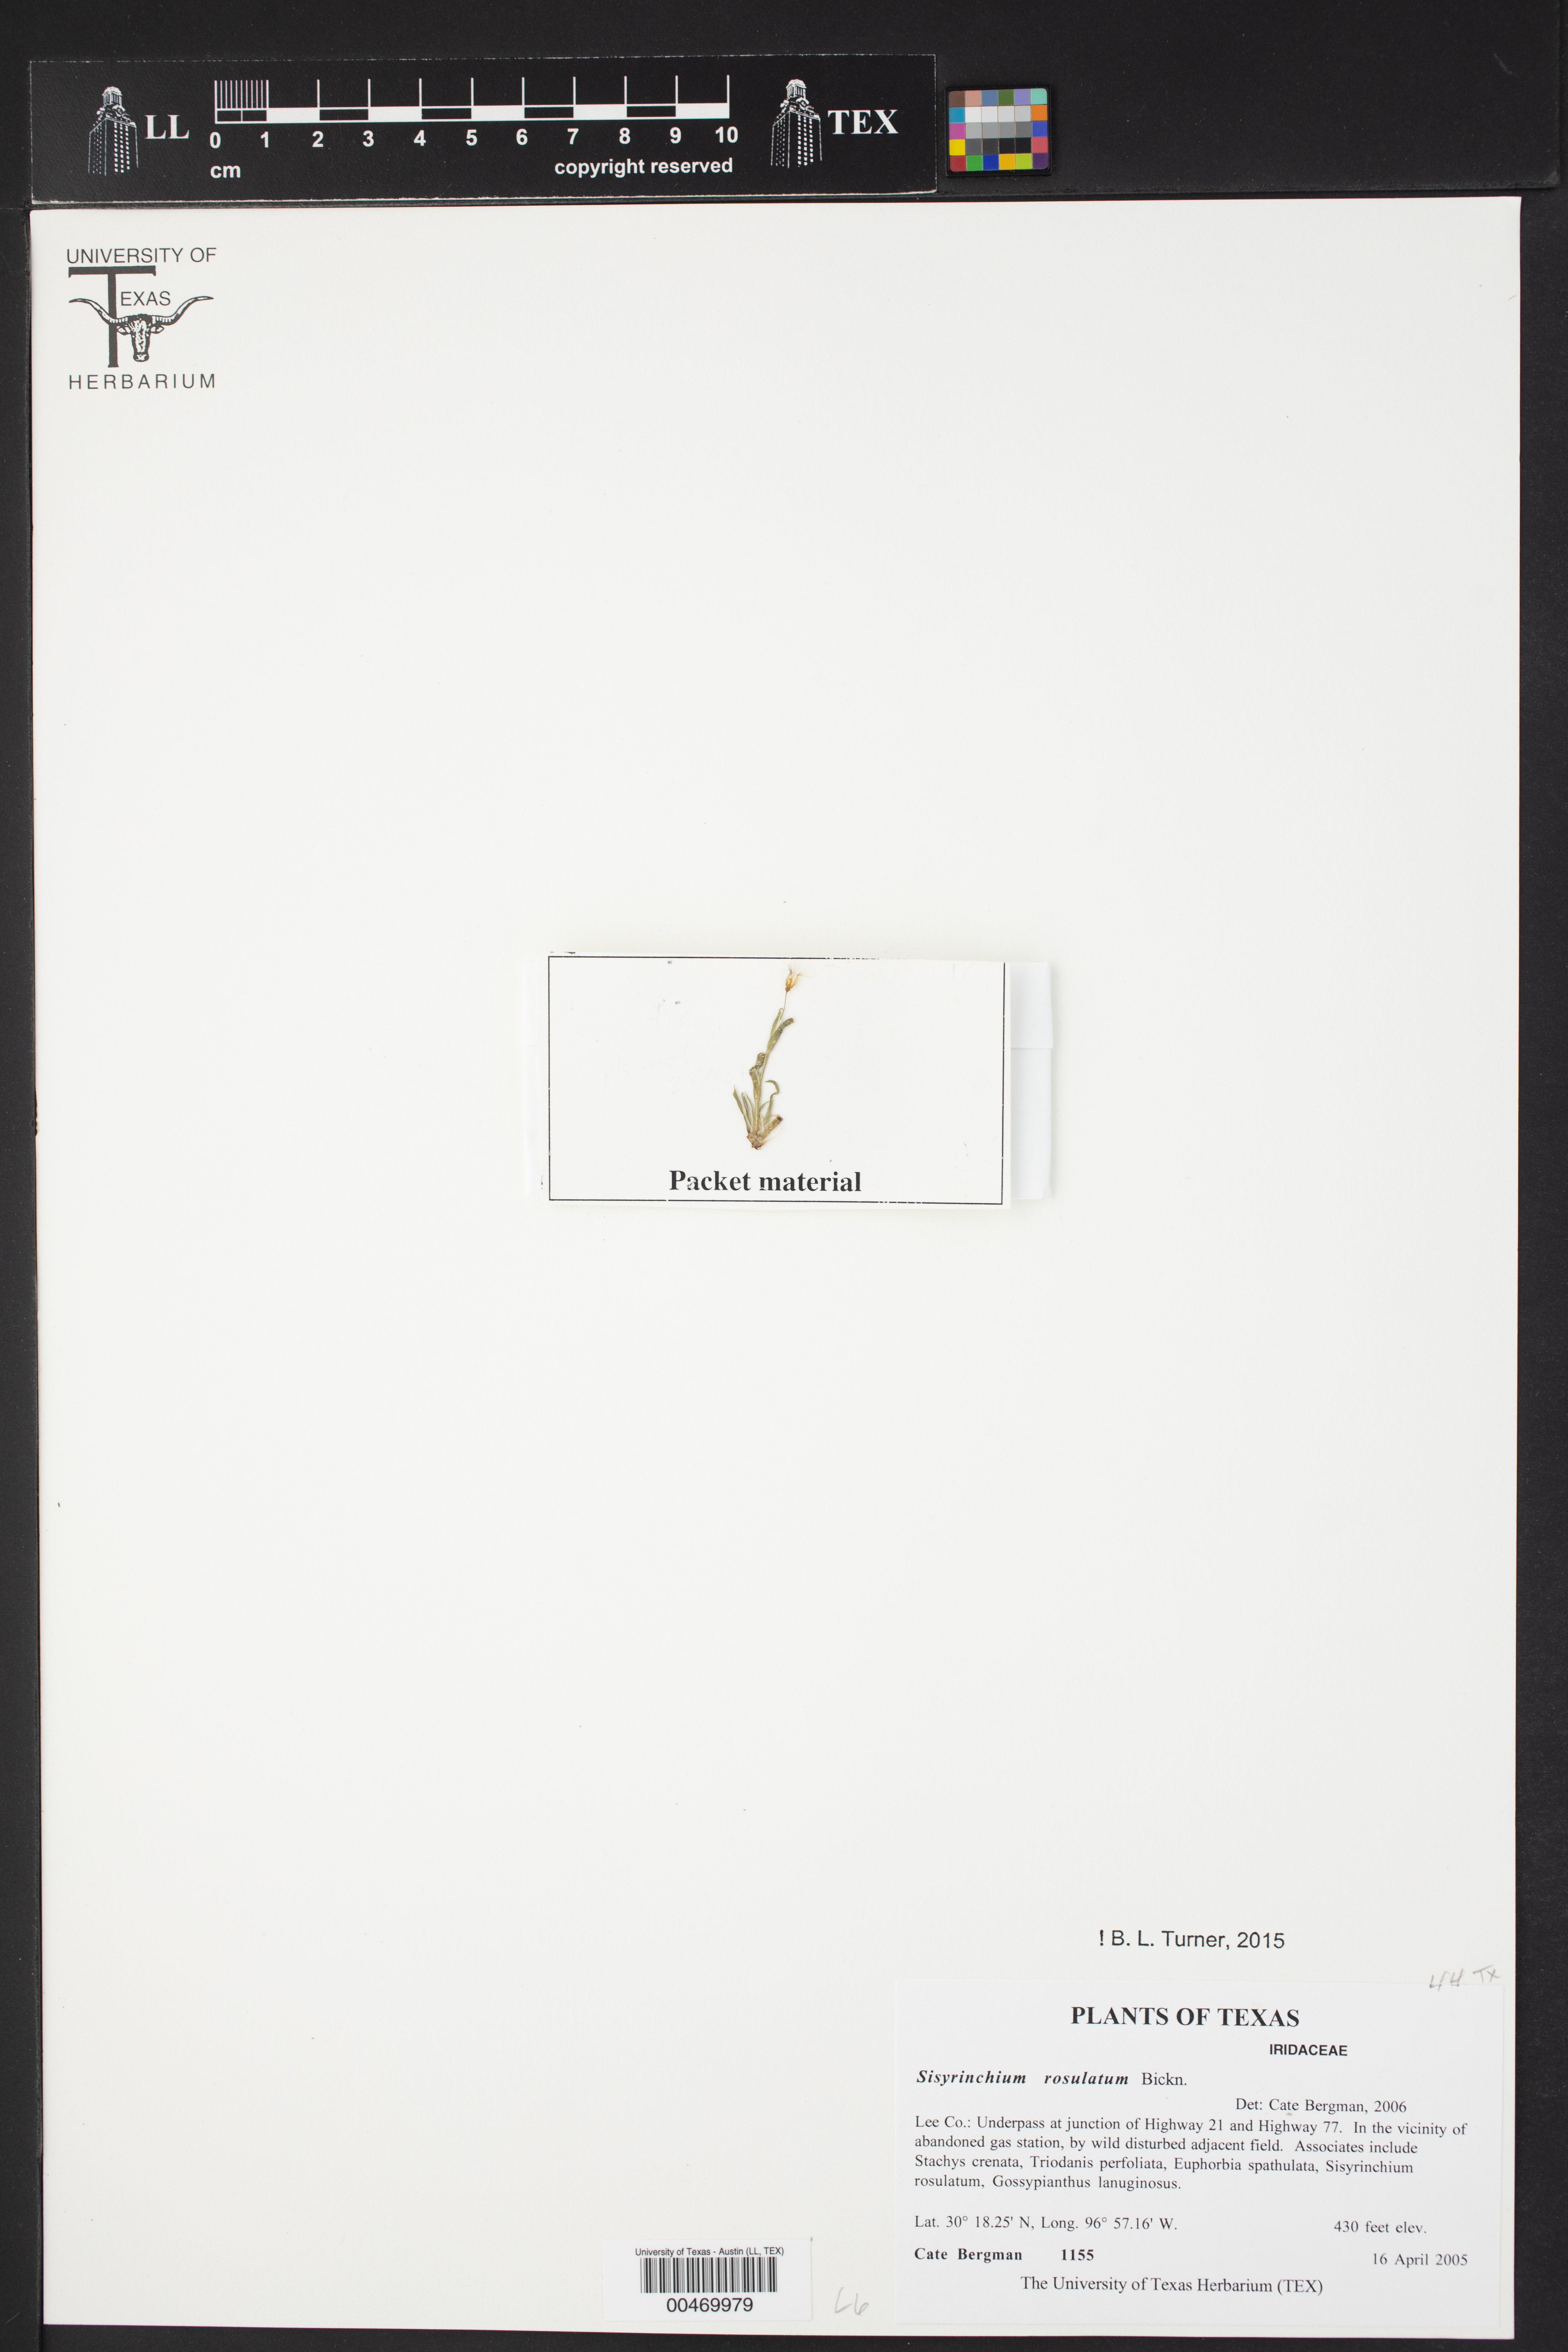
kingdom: Plantae
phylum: Tracheophyta
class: Liliopsida
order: Asparagales
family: Iridaceae
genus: Sisyrinchium
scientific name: Sisyrinchium rosulatum
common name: Annual blue-eyed grass
